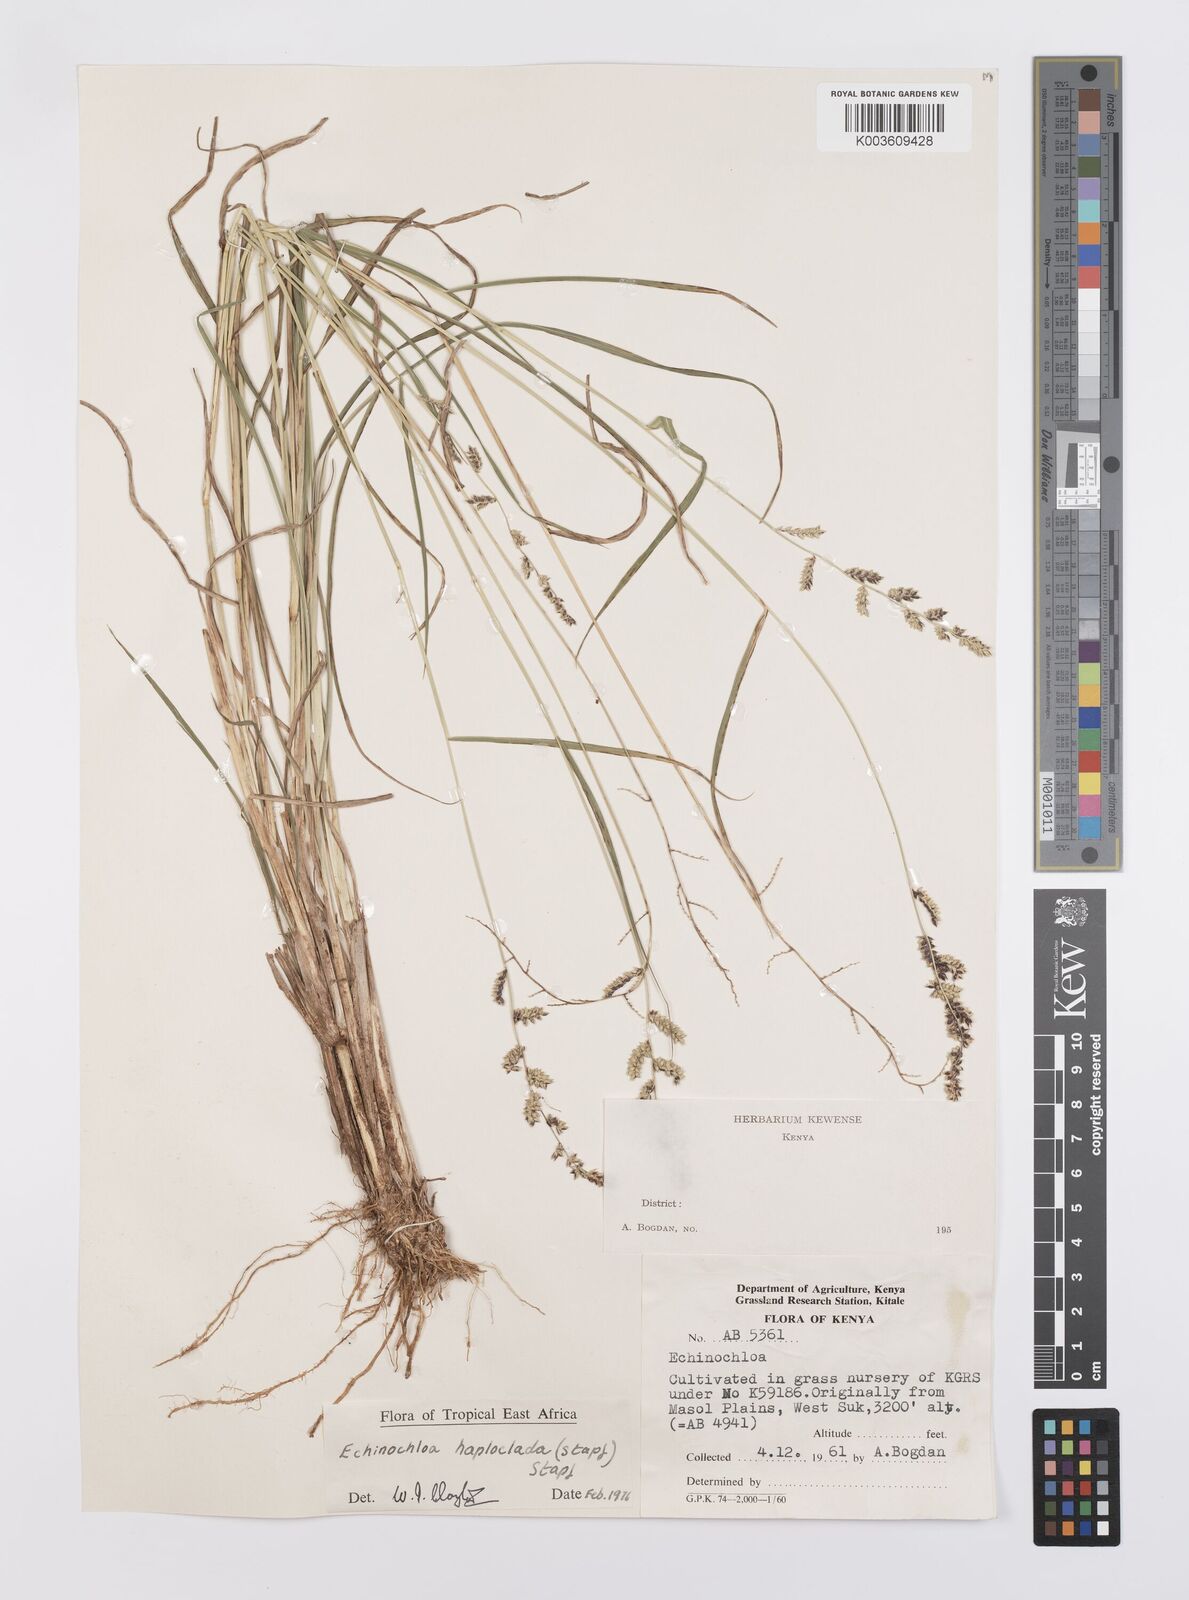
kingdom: Plantae
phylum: Tracheophyta
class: Liliopsida
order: Poales
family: Poaceae
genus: Echinochloa
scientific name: Echinochloa haploclada
